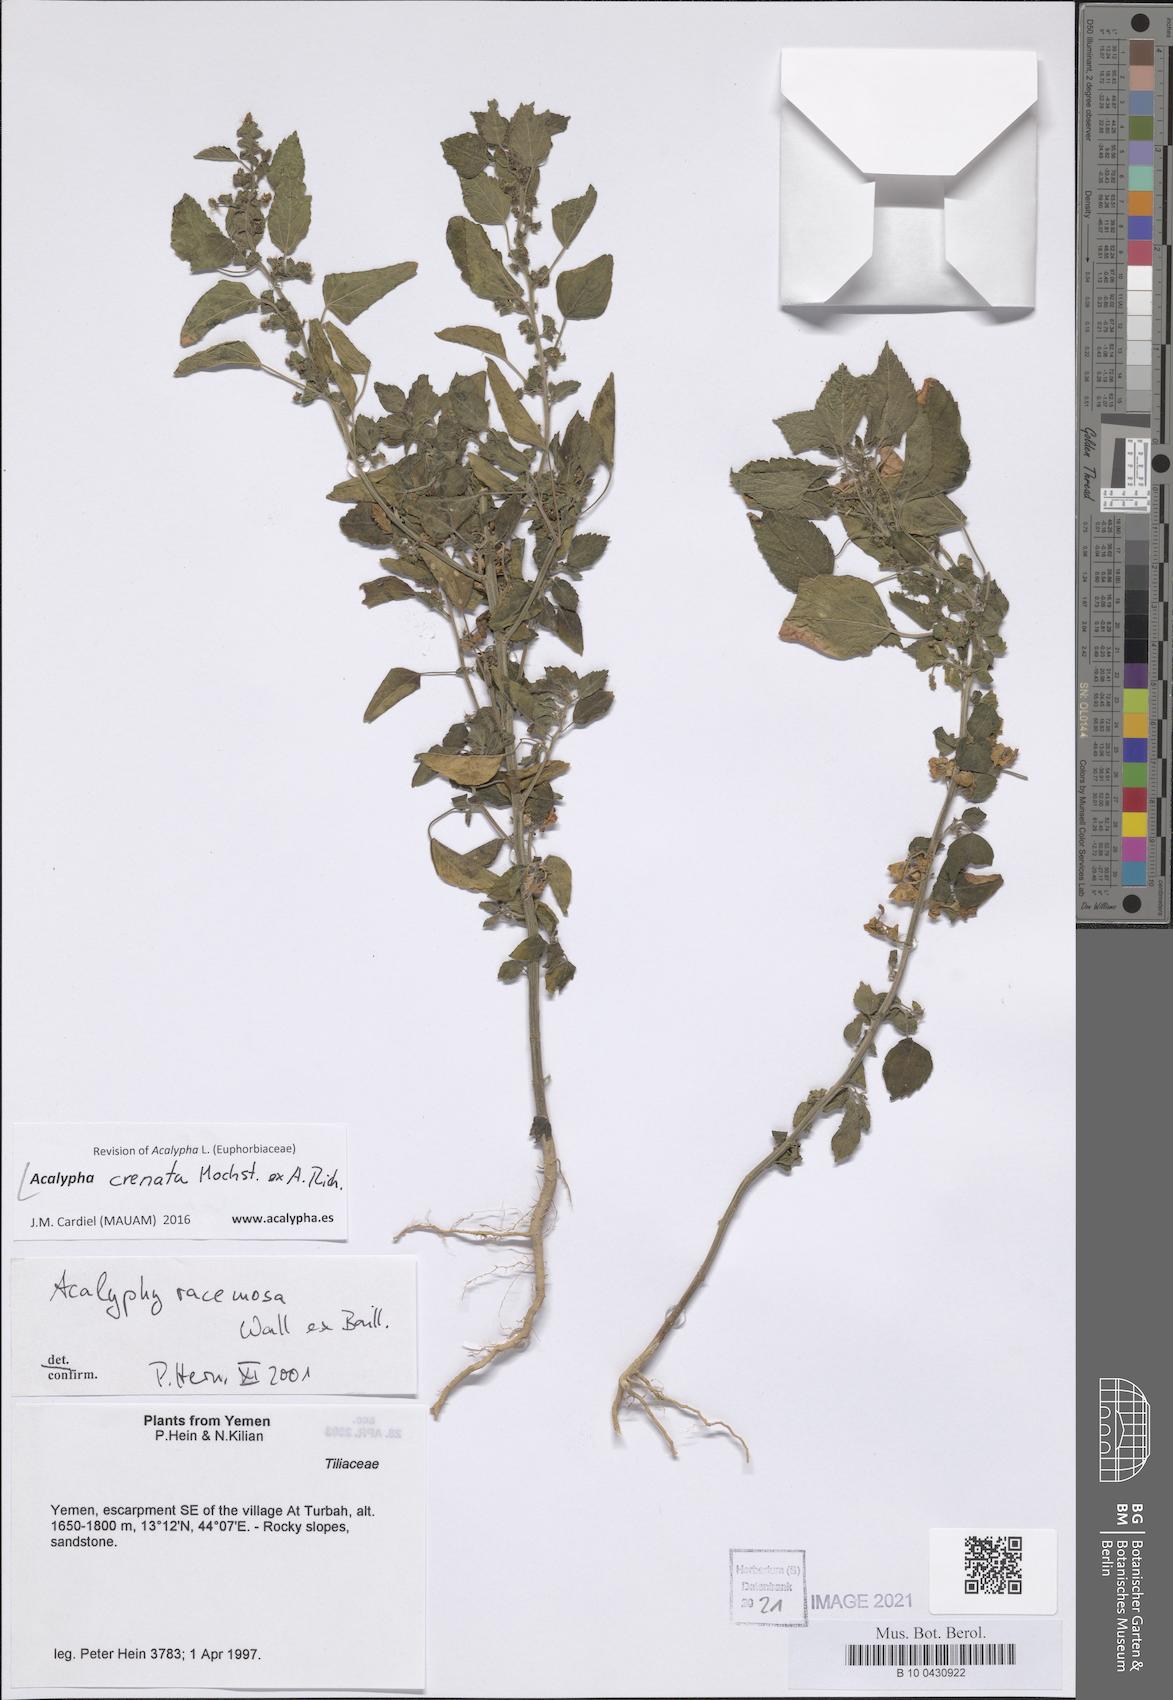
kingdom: Plantae
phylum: Tracheophyta
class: Magnoliopsida
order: Malpighiales
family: Euphorbiaceae
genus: Acalypha
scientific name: Acalypha crenata
